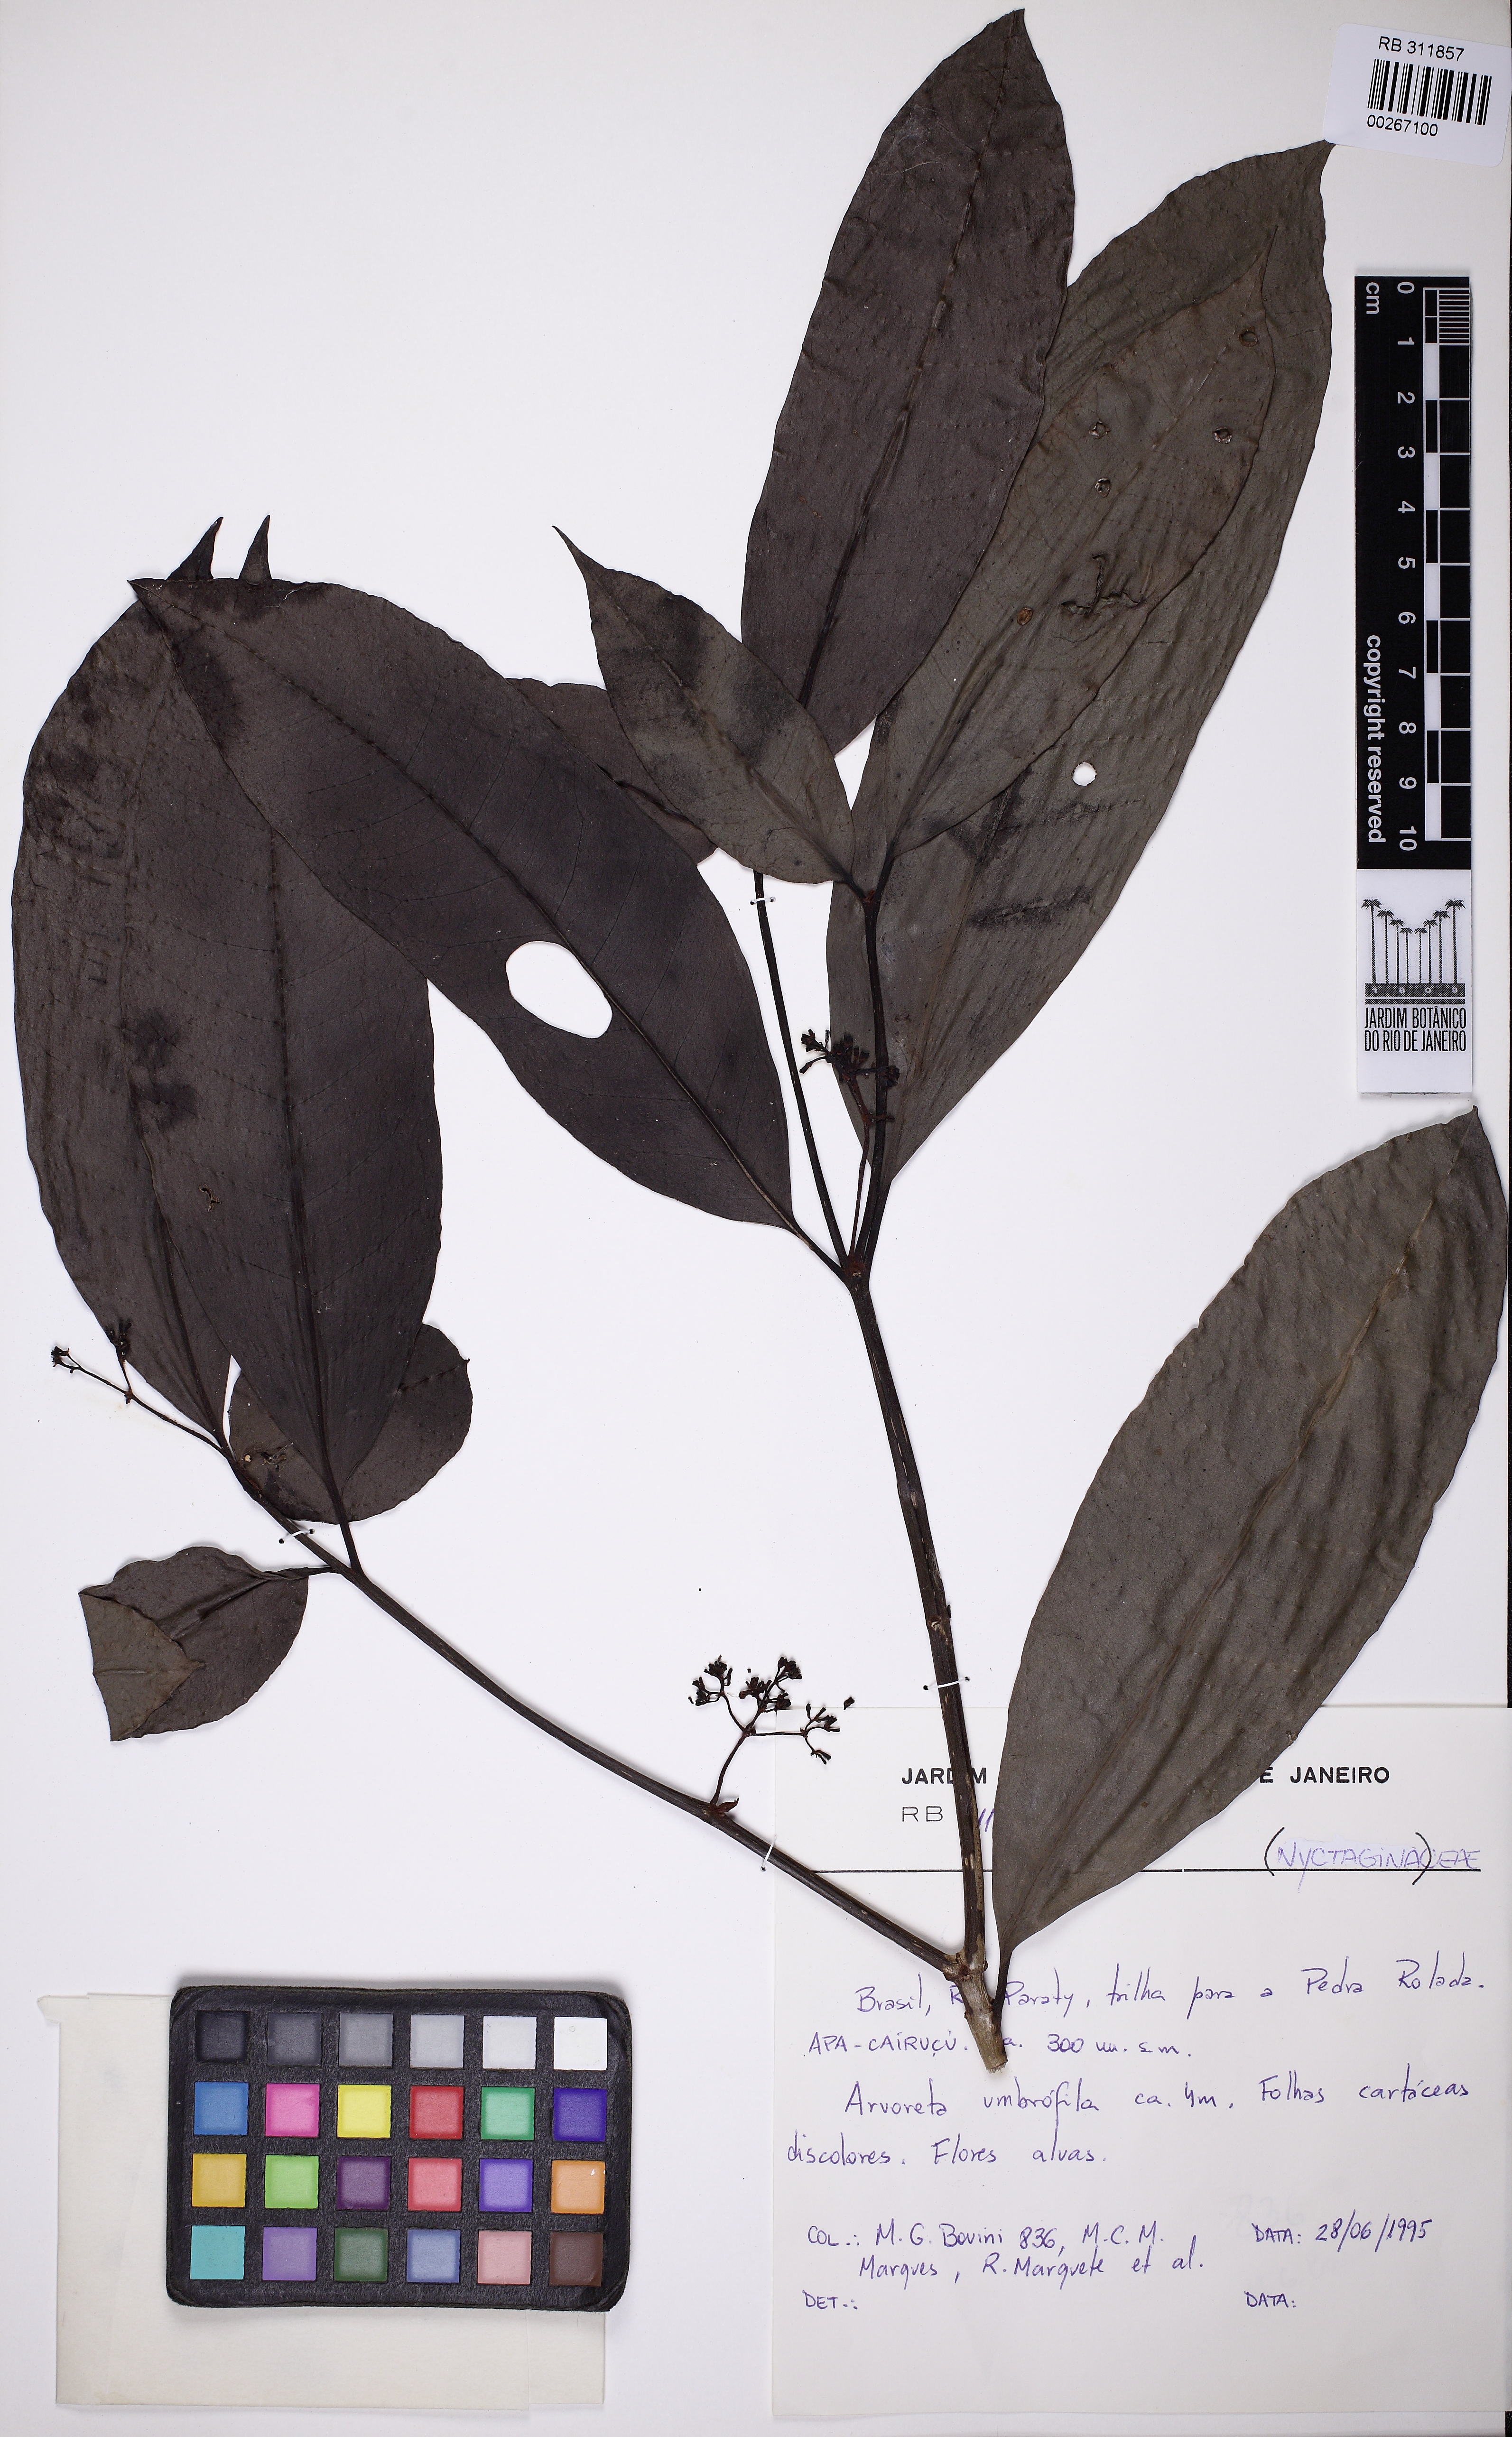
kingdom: Plantae
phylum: Tracheophyta
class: Magnoliopsida
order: Caryophyllales
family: Nyctaginaceae
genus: Guapira
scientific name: Guapira nitida
